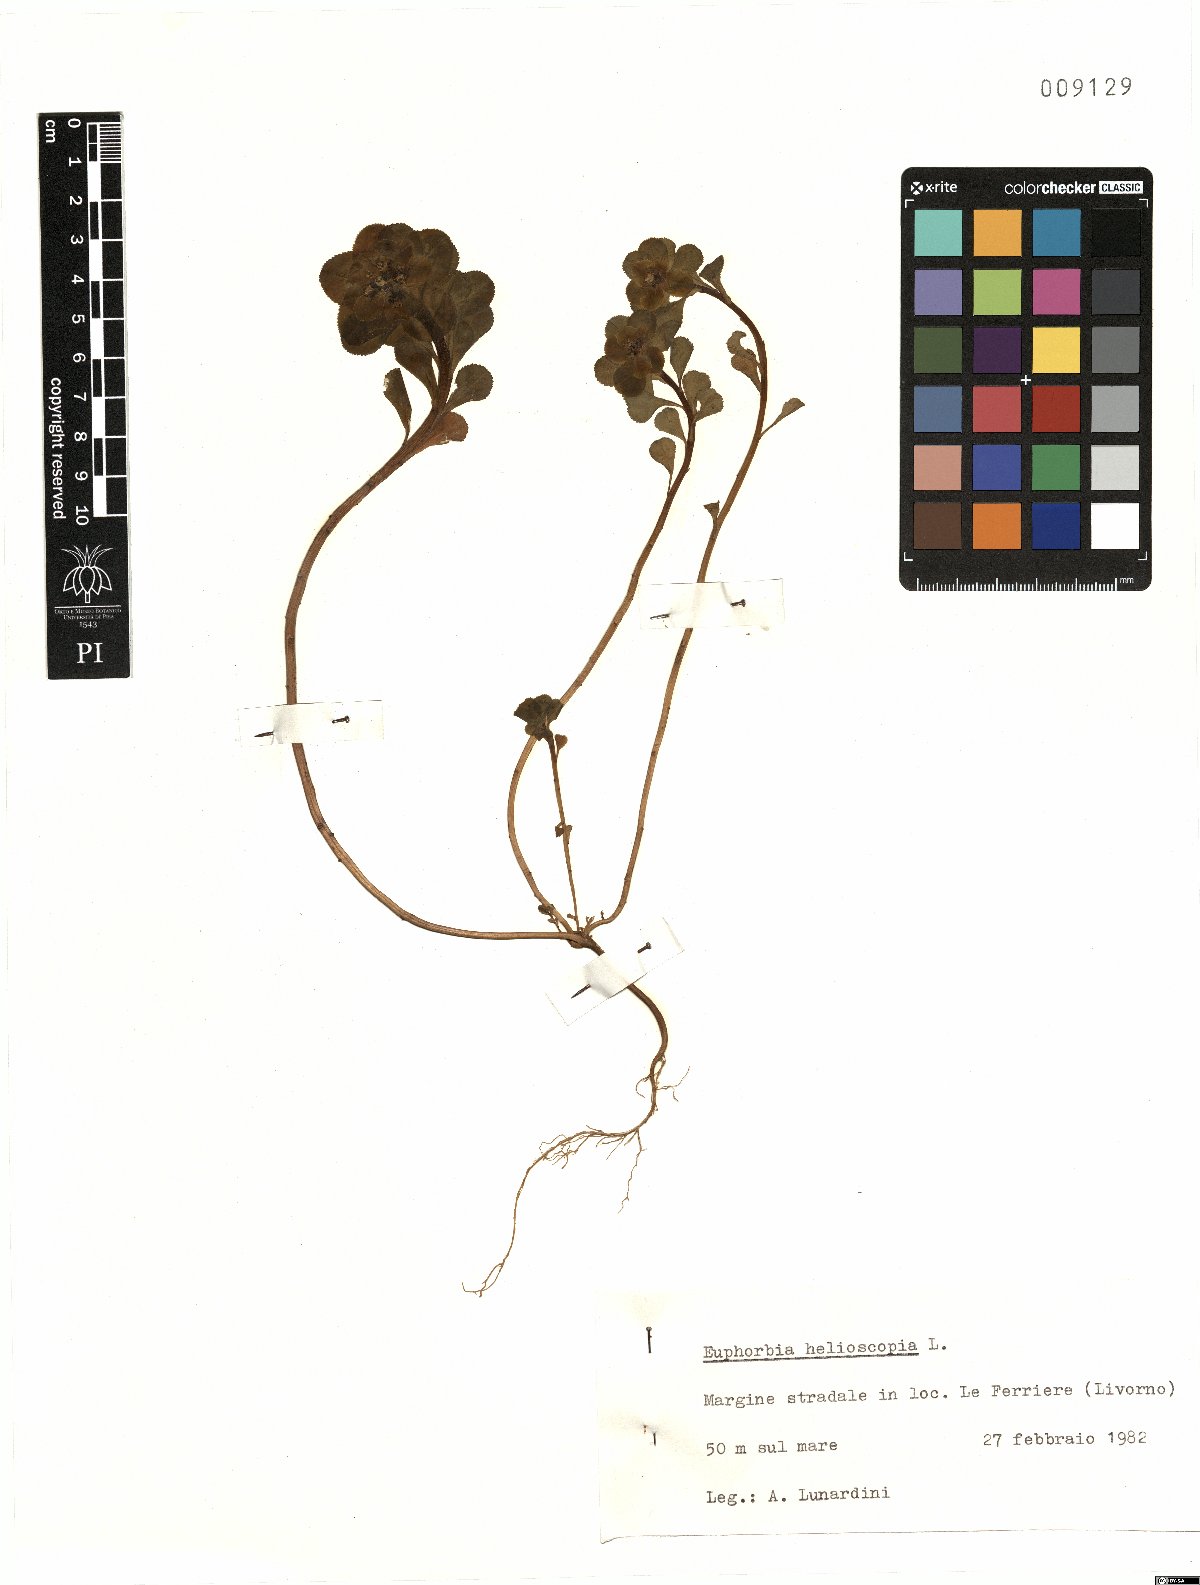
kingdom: Plantae
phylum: Tracheophyta
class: Magnoliopsida
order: Malpighiales
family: Euphorbiaceae
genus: Euphorbia
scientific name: Euphorbia helioscopia
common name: Sun spurge
